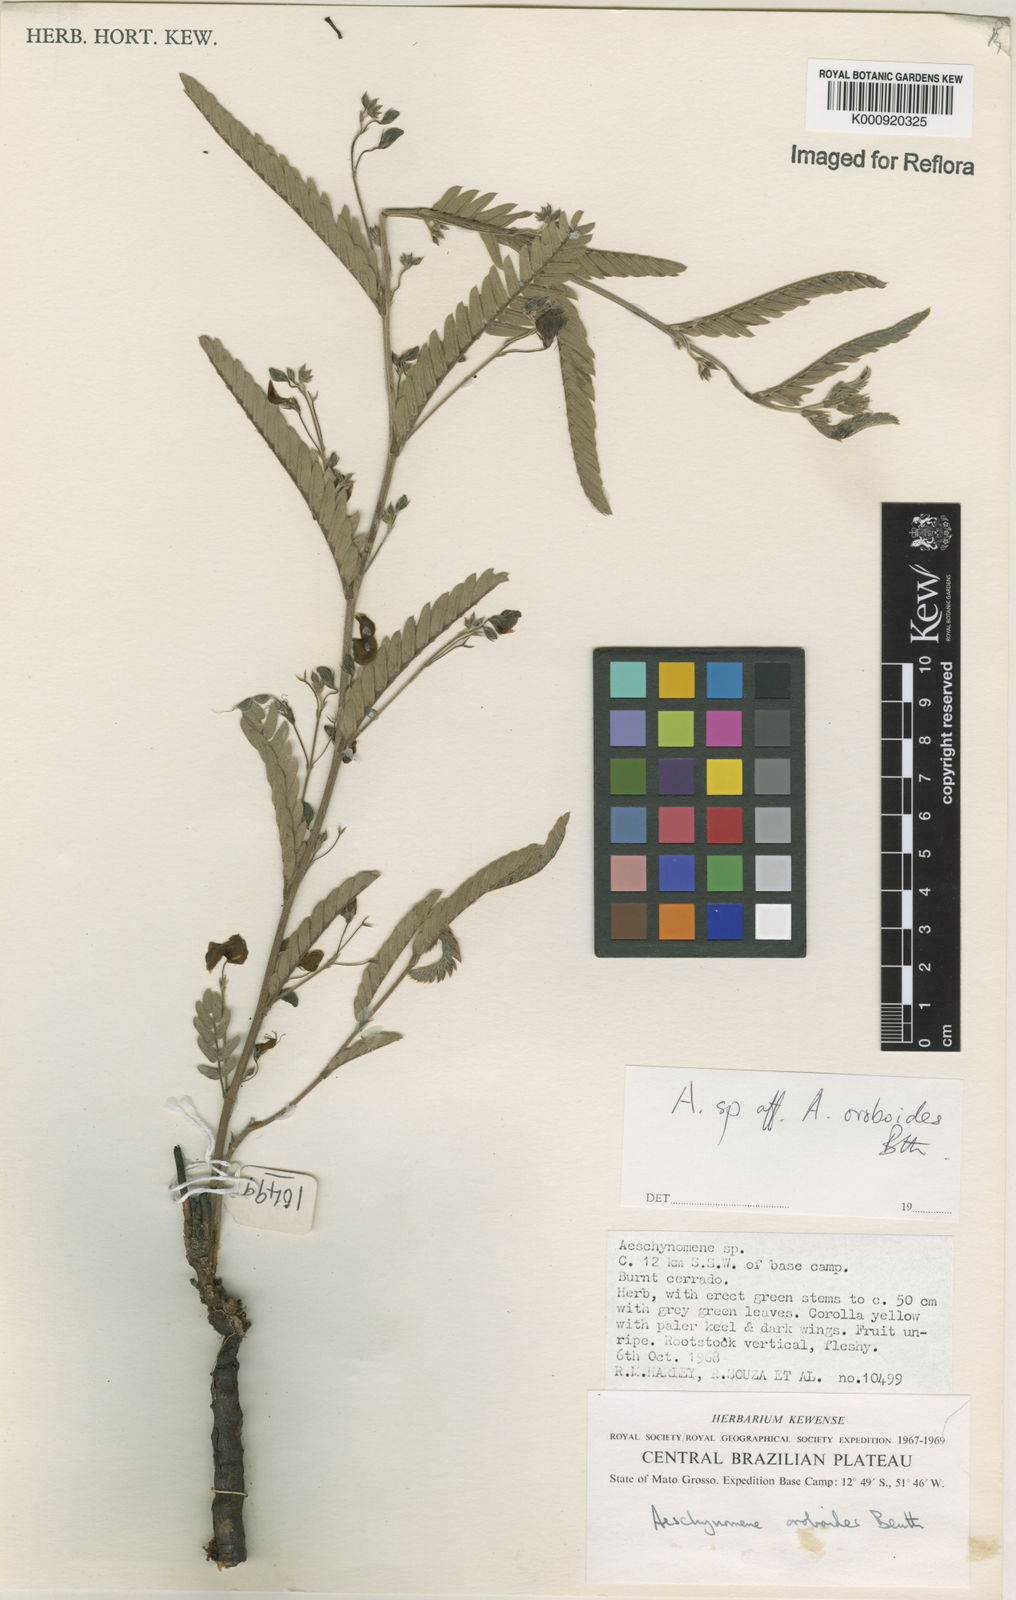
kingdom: Plantae
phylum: Tracheophyta
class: Magnoliopsida
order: Fabales
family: Fabaceae
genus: Ctenodon
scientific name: Ctenodon oroboides
